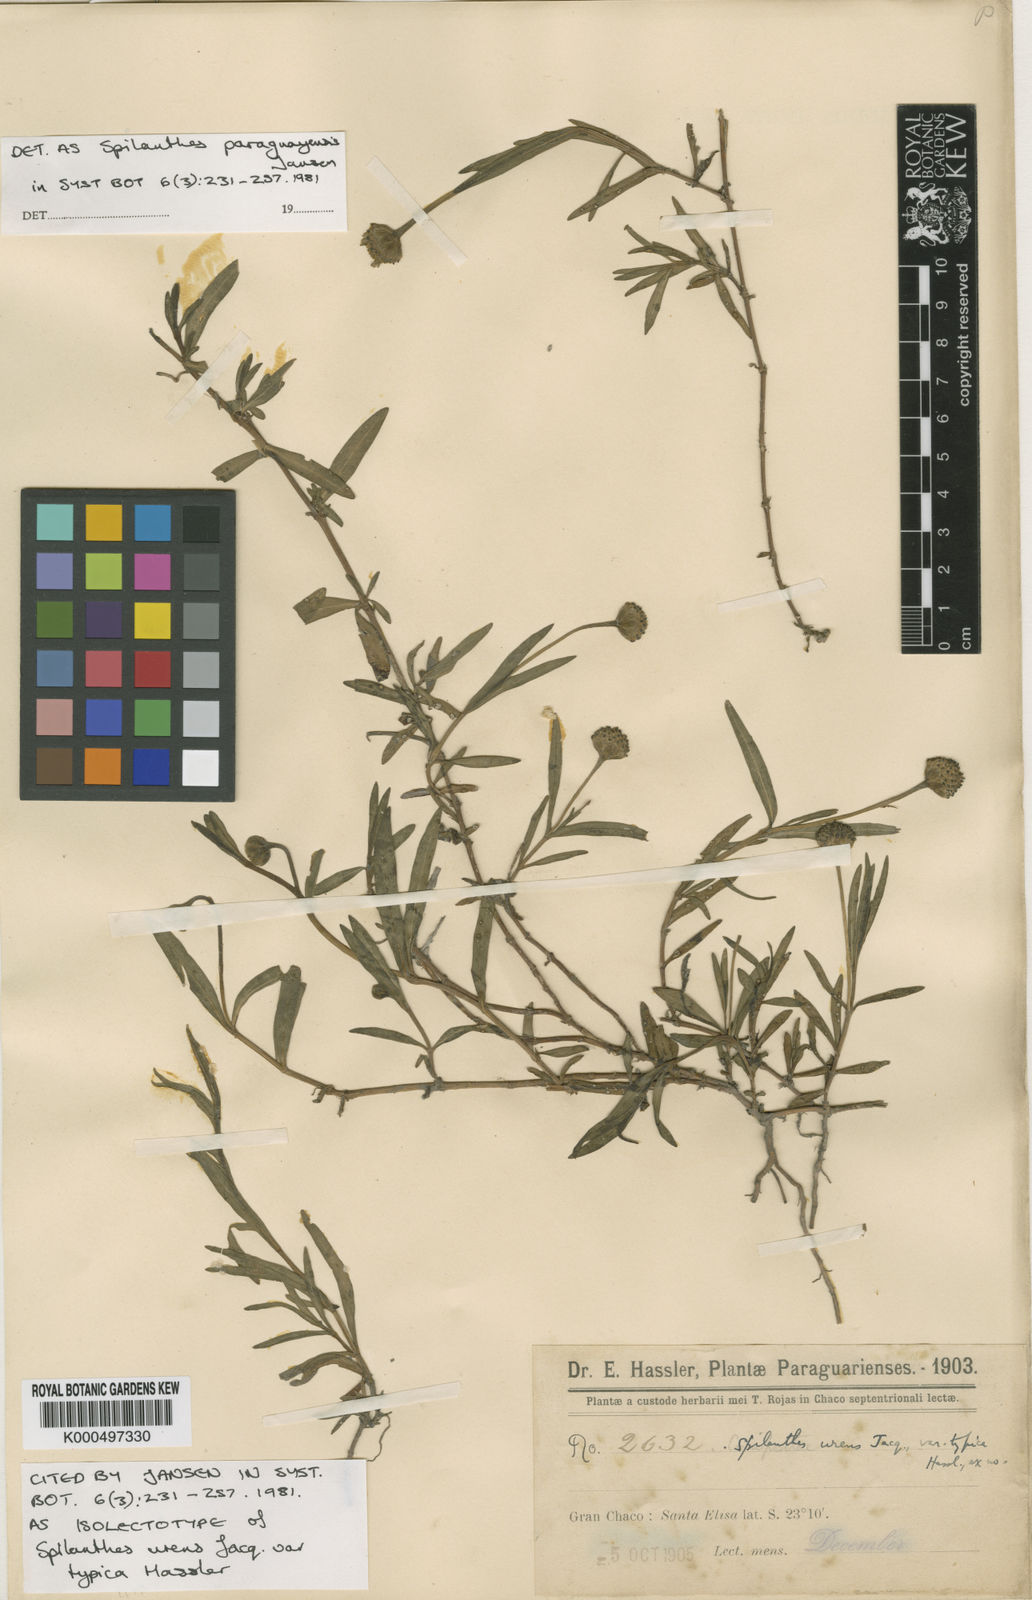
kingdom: Plantae
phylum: Tracheophyta
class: Magnoliopsida
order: Asterales
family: Asteraceae
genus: Spilanthes
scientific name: Spilanthes paraguayensis
